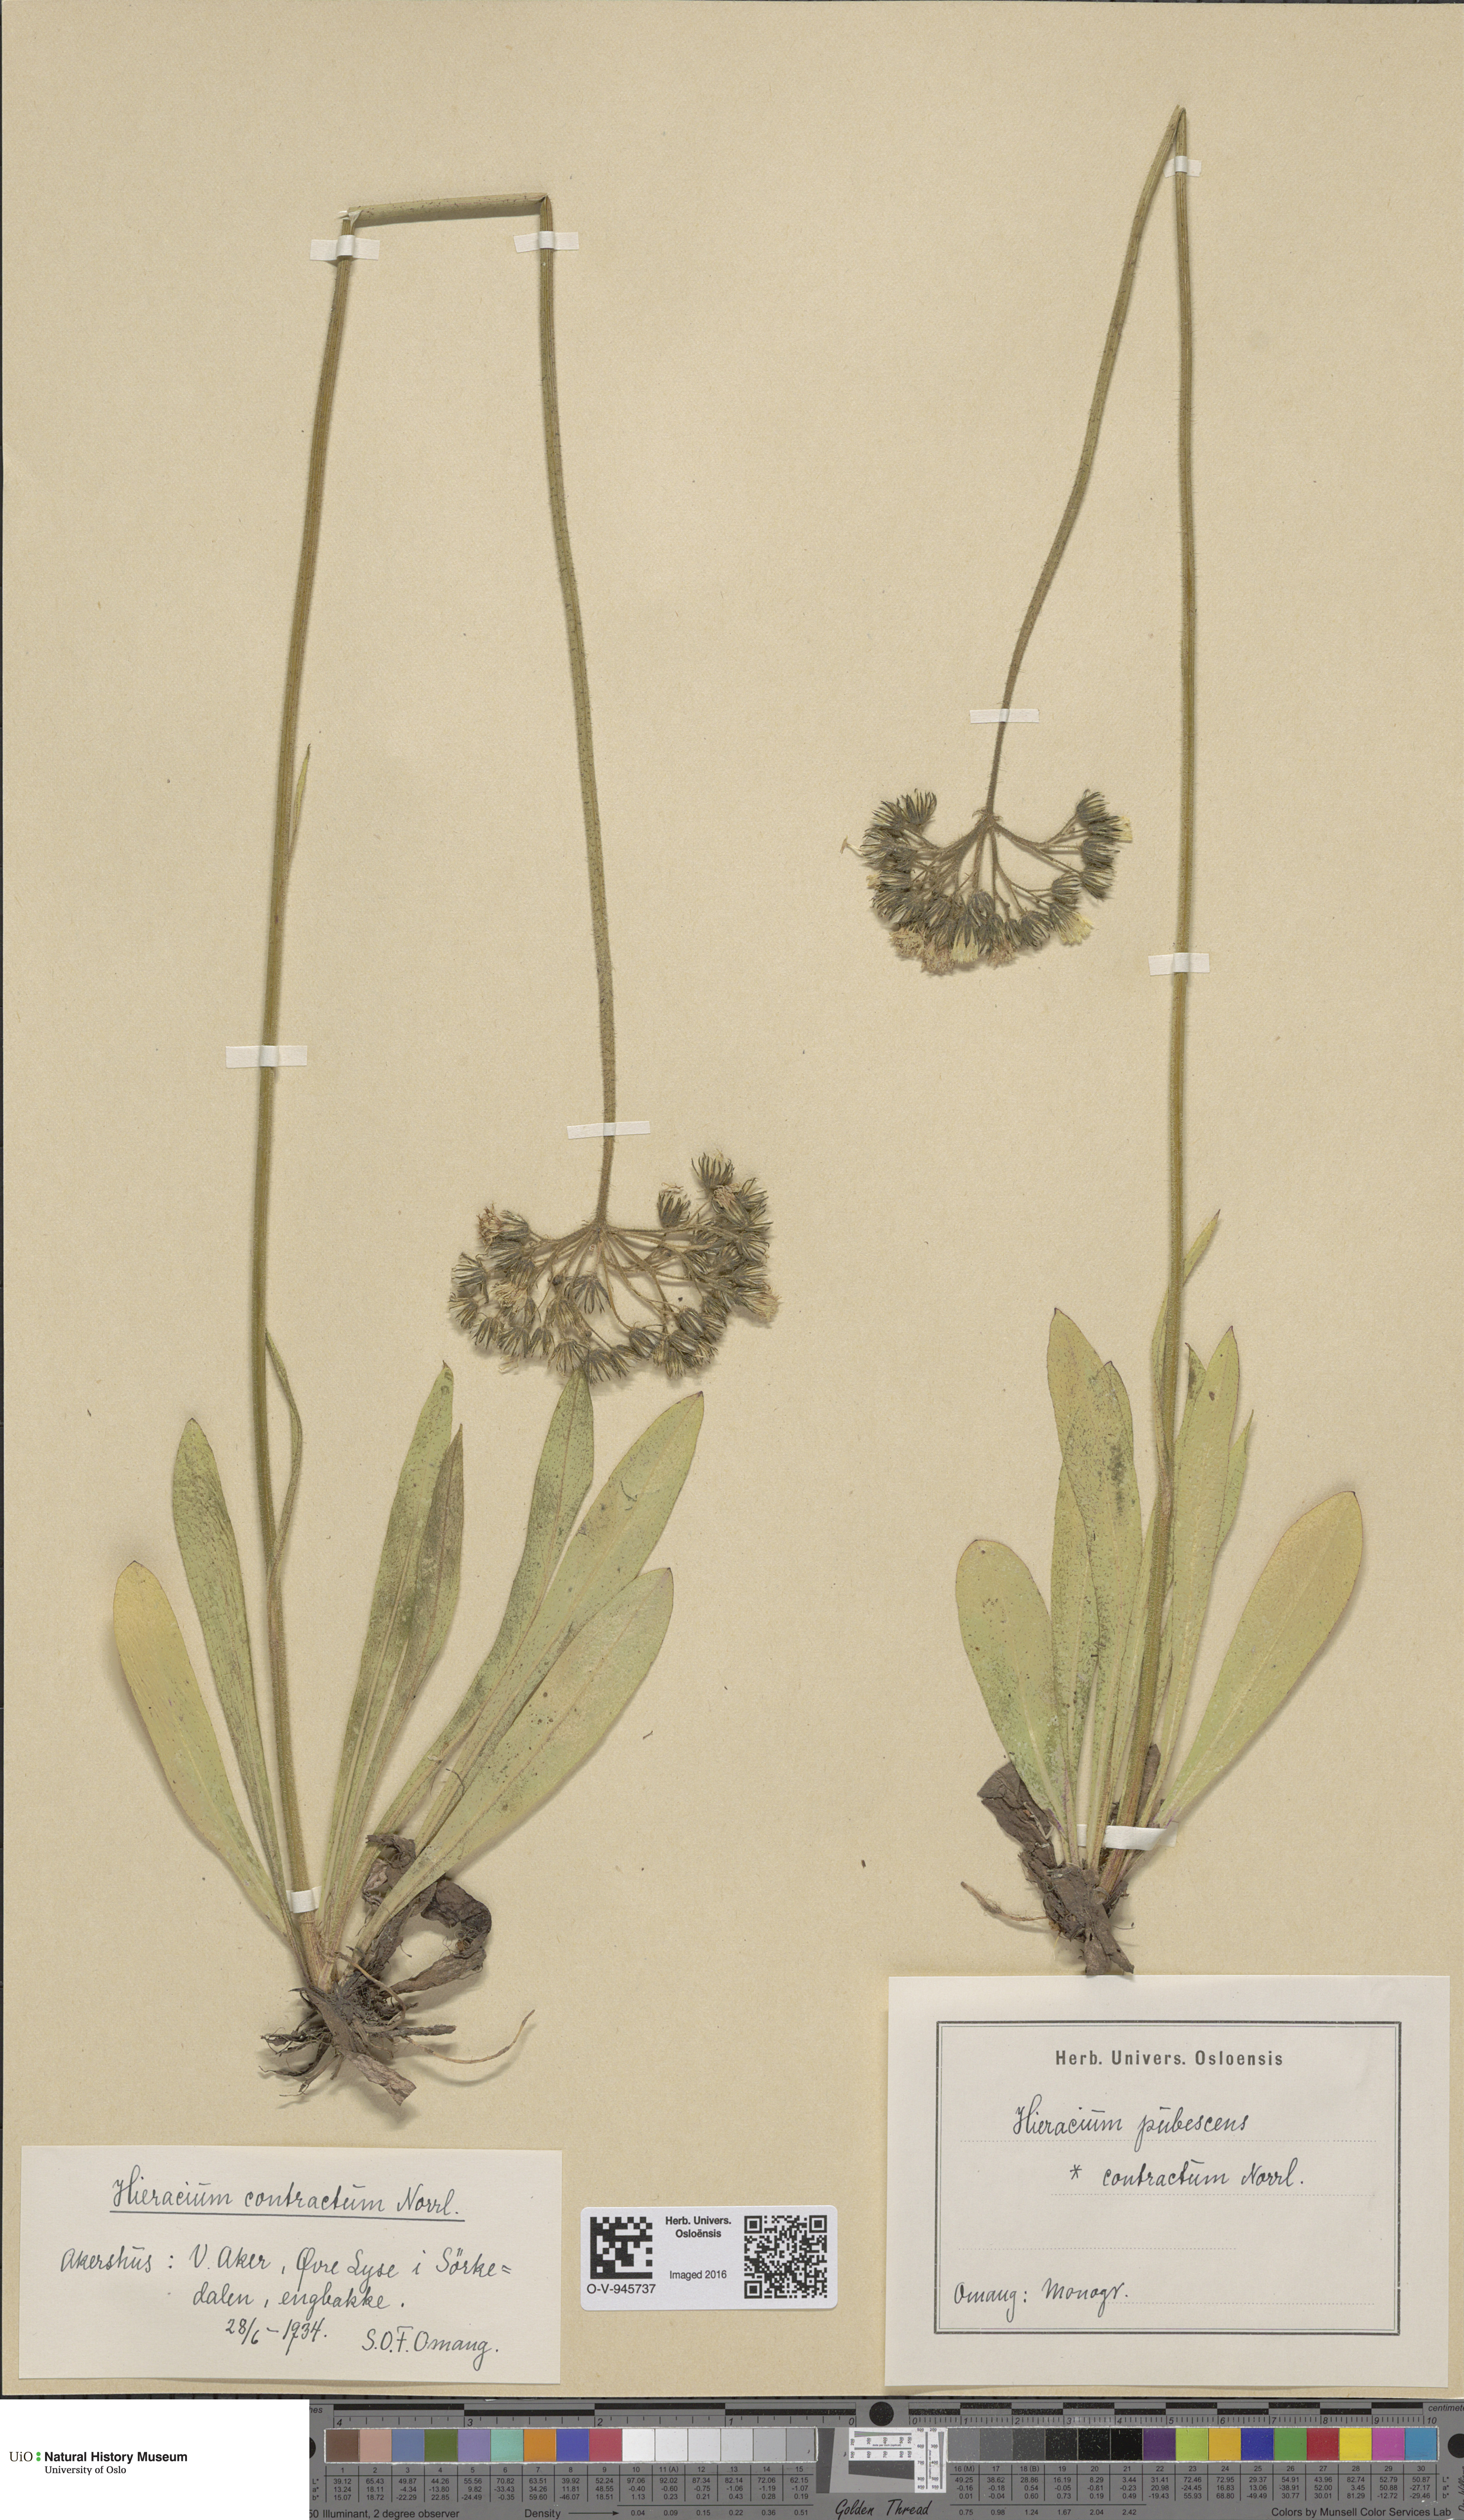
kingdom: Plantae
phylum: Tracheophyta
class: Magnoliopsida
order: Asterales
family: Asteraceae
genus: Pilosella
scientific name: Pilosella cymosa
